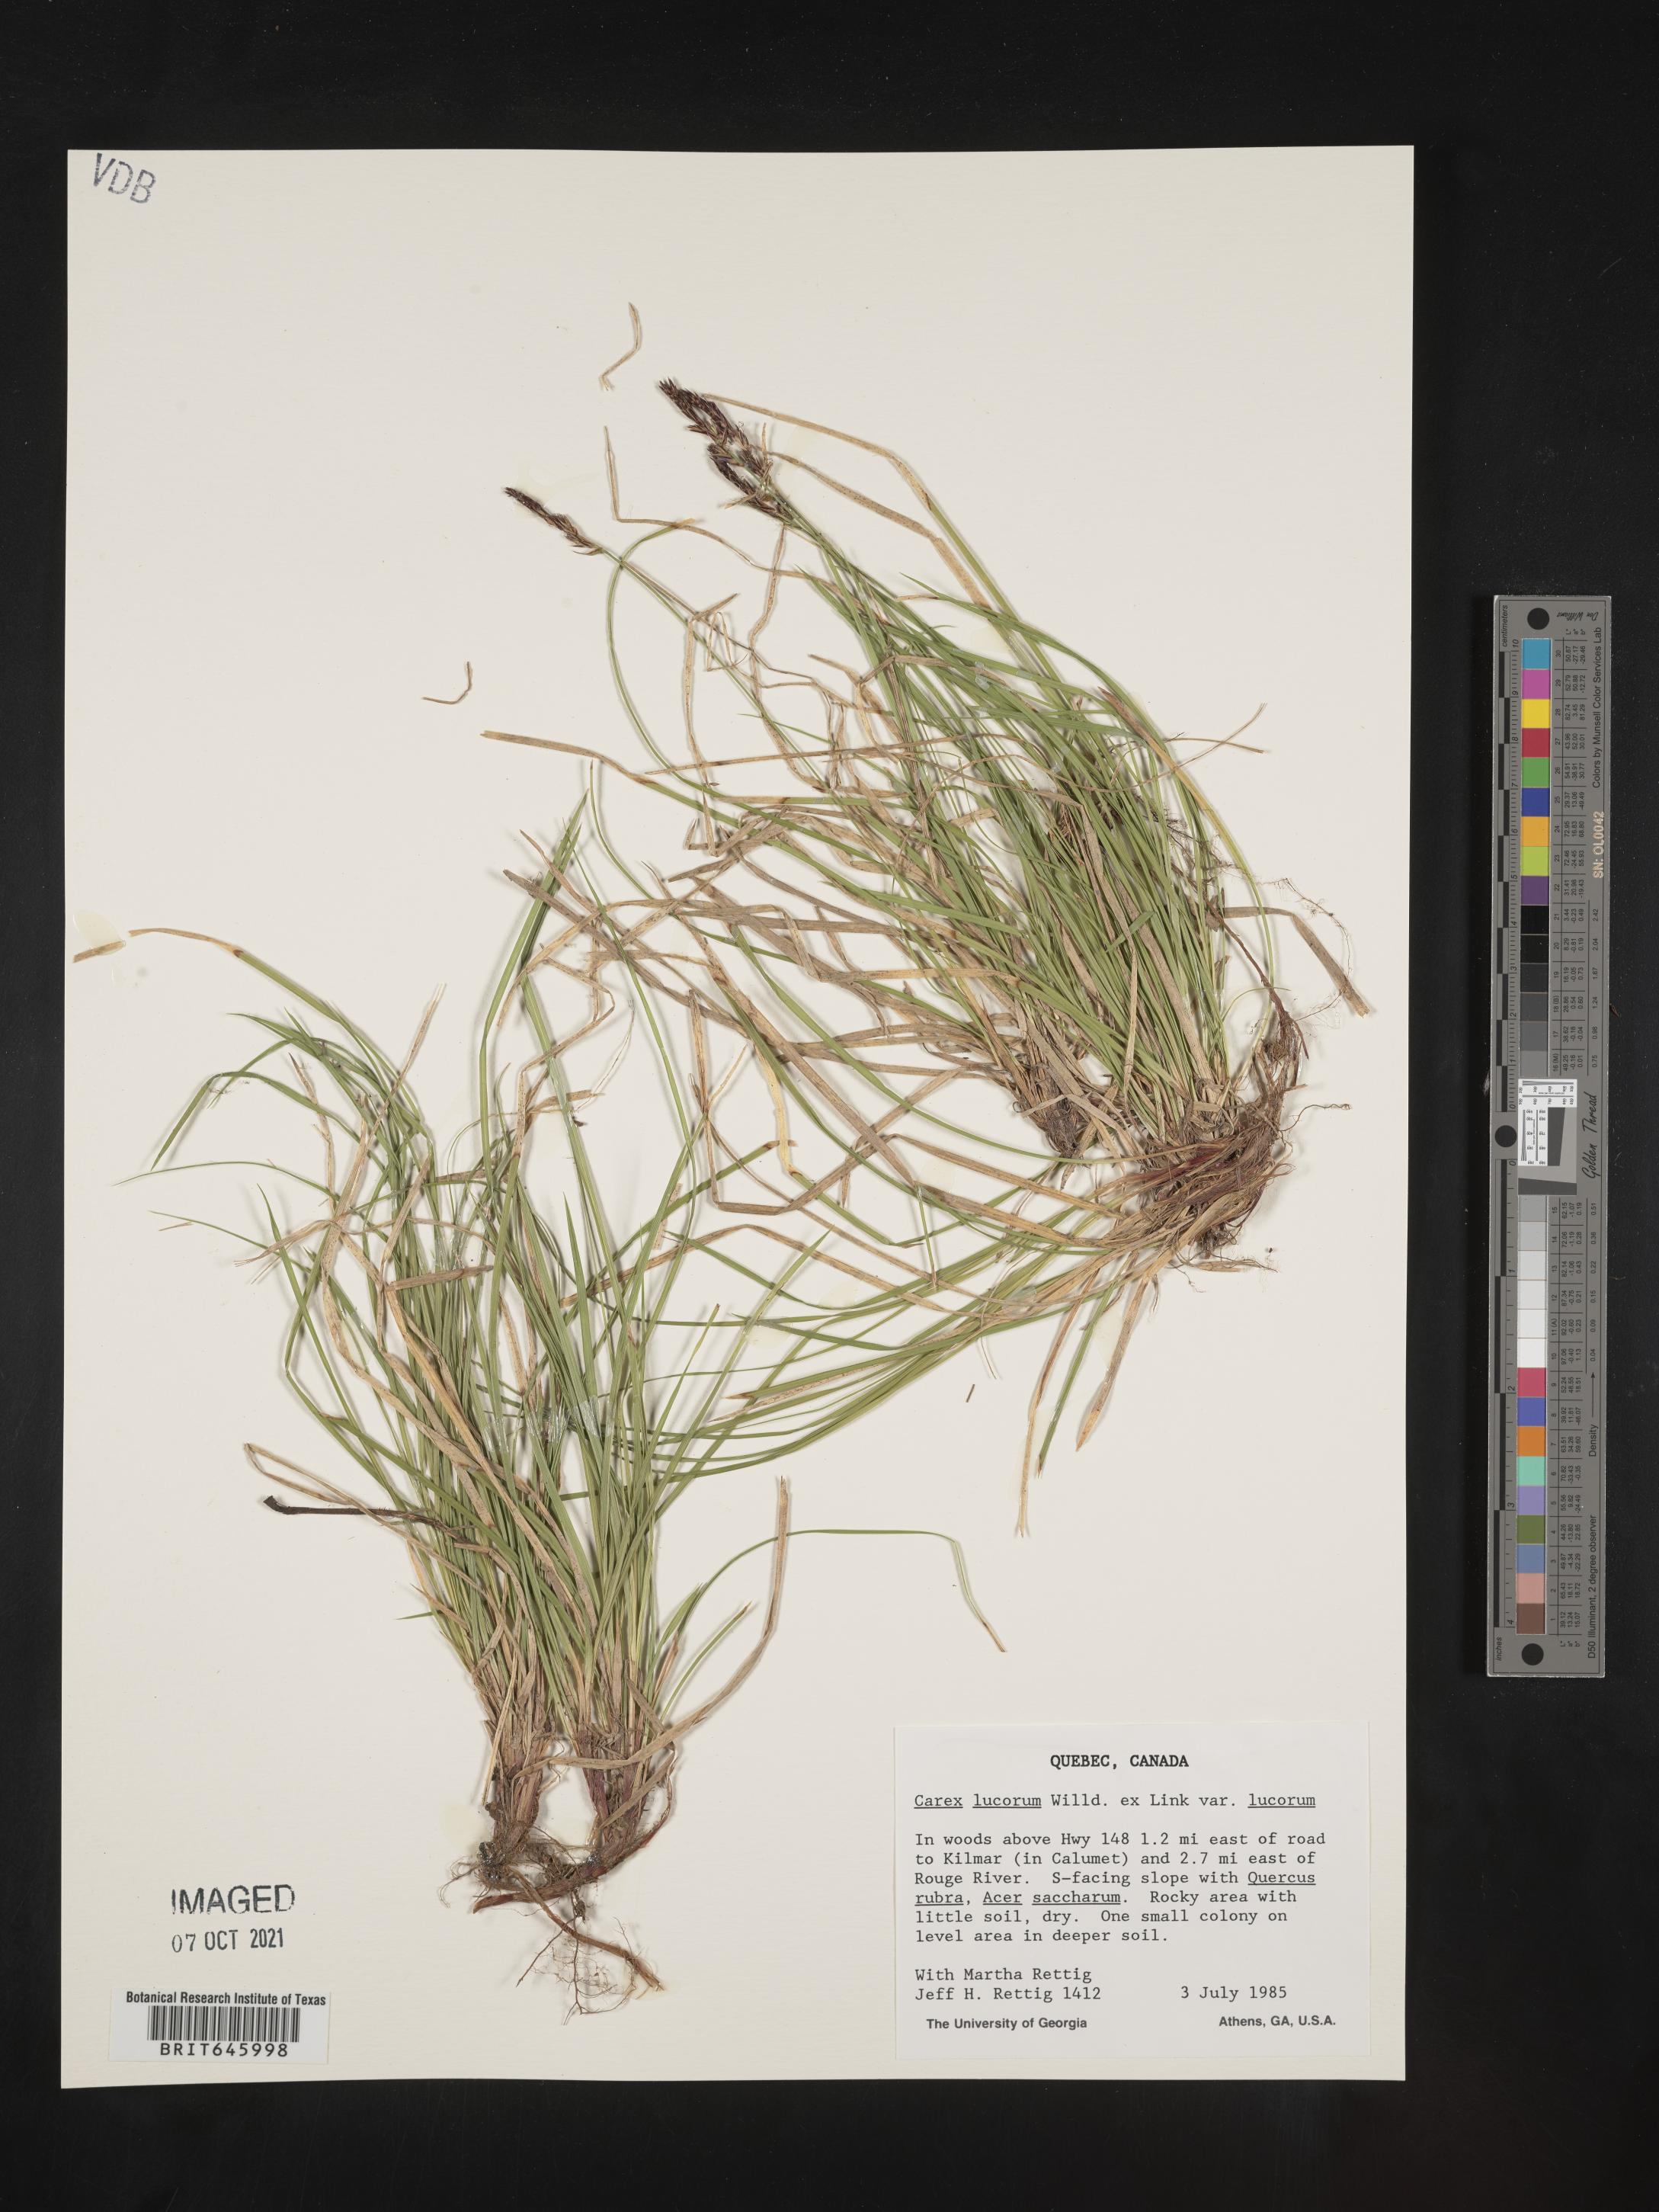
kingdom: Plantae
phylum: Tracheophyta
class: Liliopsida
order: Poales
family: Cyperaceae
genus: Carex
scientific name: Carex lucorum
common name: Blue ridge sedge
